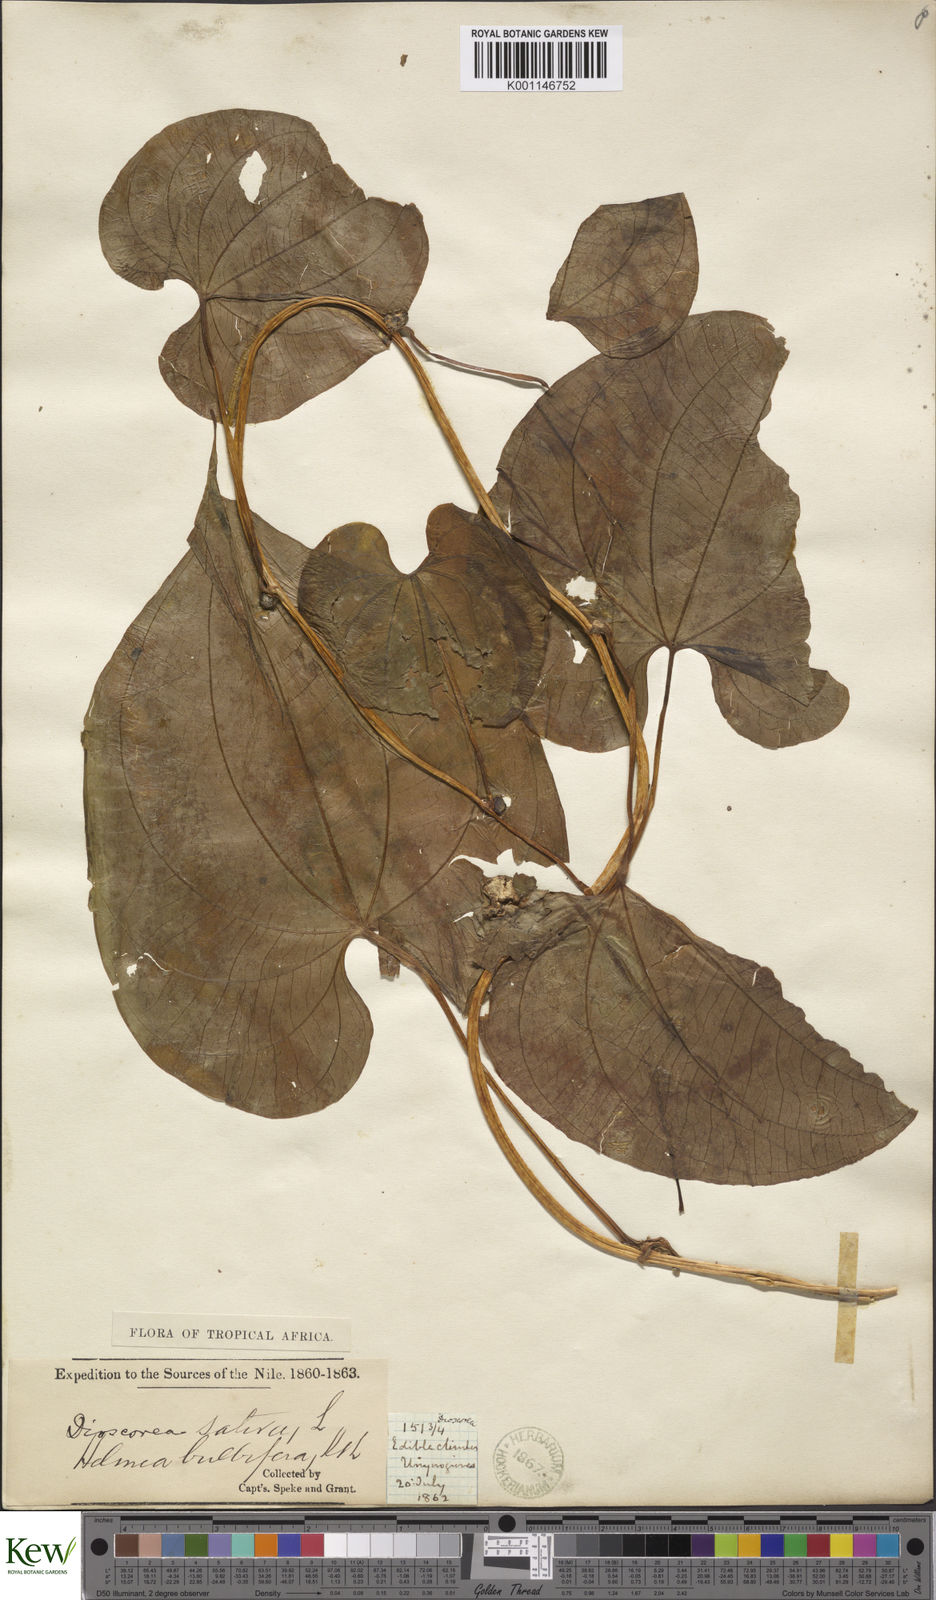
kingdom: Plantae
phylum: Tracheophyta
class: Liliopsida
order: Dioscoreales
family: Dioscoreaceae
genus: Dioscorea
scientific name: Dioscorea bulbifera
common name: Air yam
